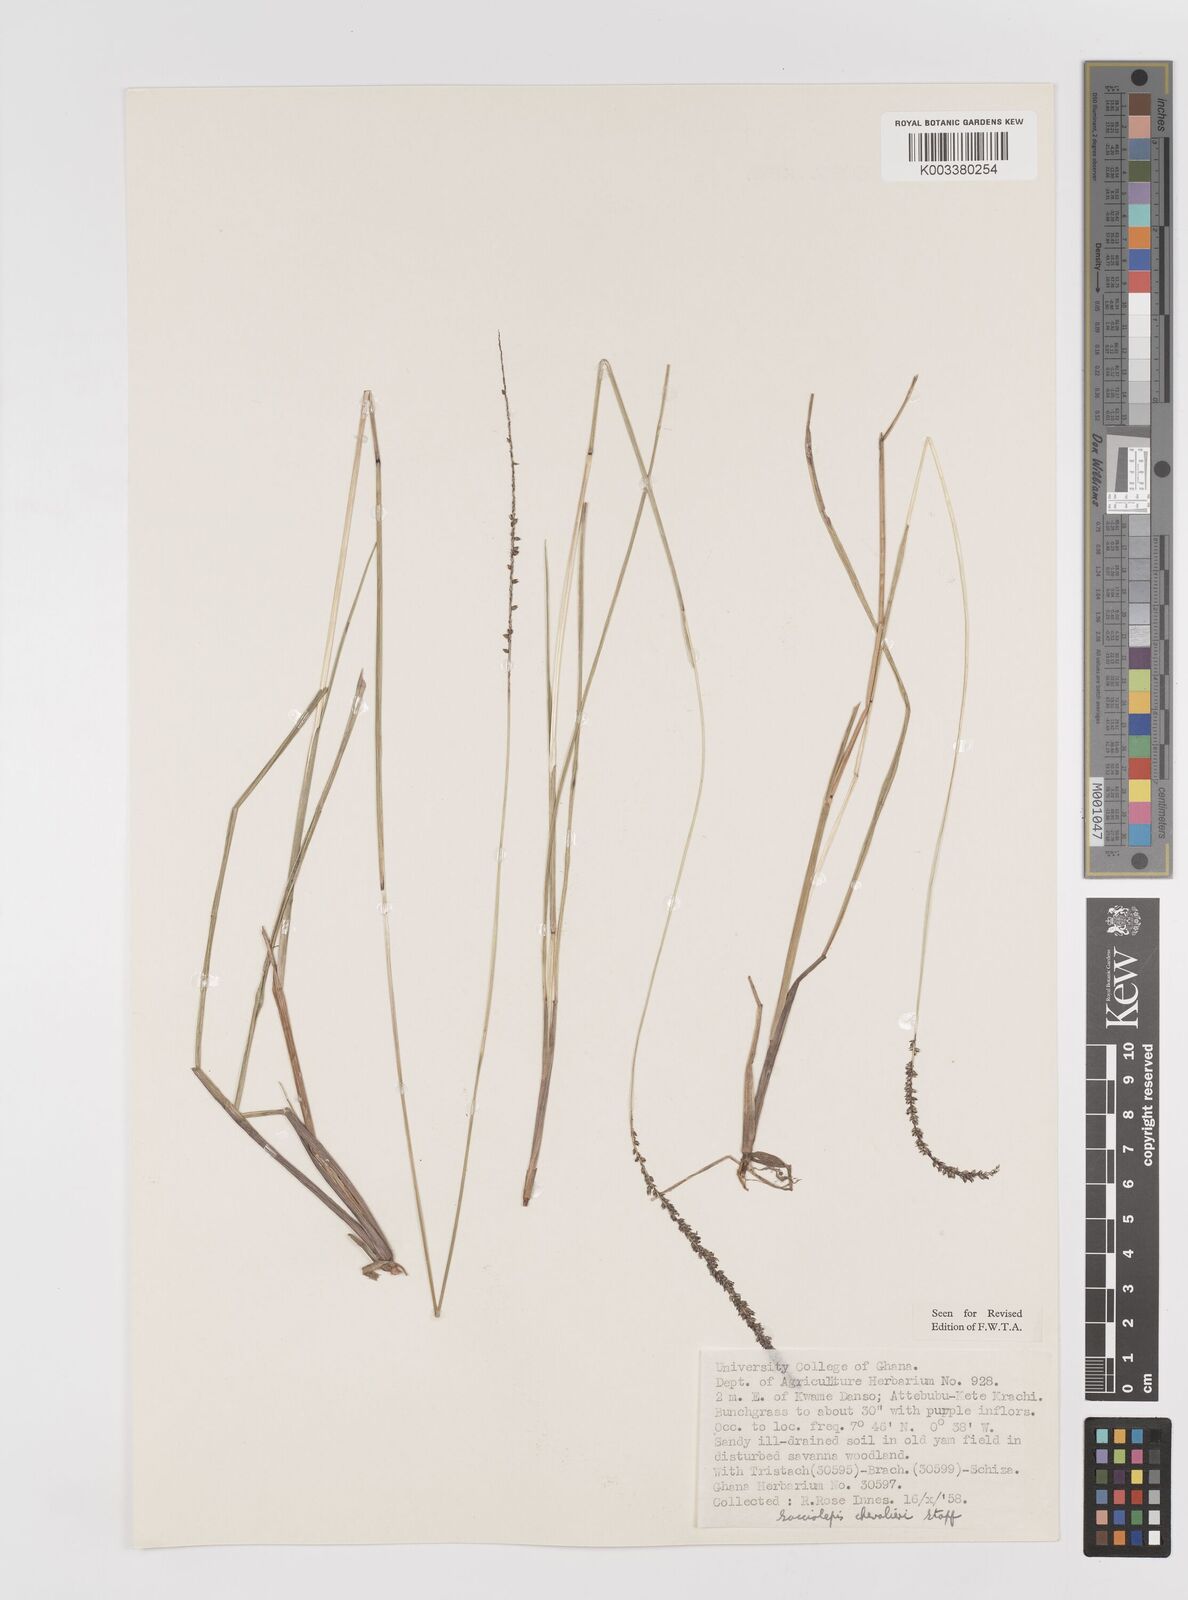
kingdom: Plantae
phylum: Tracheophyta
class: Liliopsida
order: Poales
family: Poaceae
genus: Sacciolepis
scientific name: Sacciolepis chevalieri
